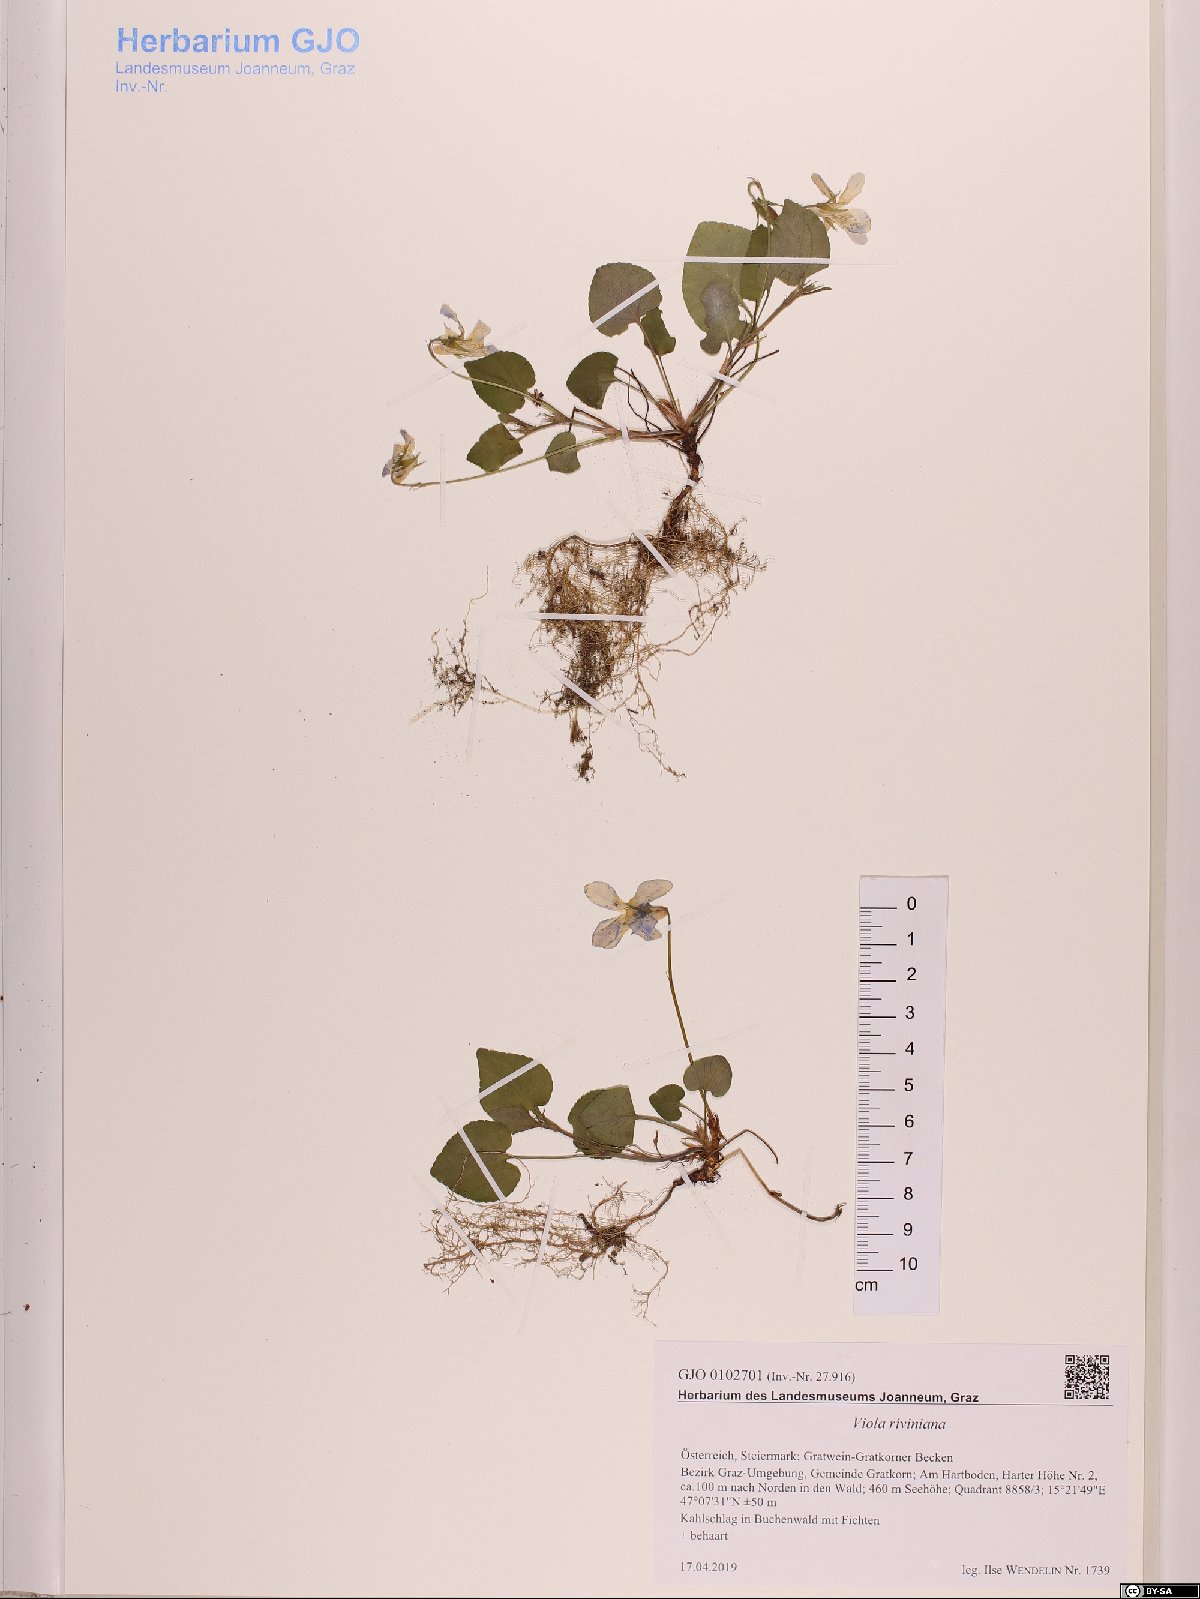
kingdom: Plantae
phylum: Tracheophyta
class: Magnoliopsida
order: Malpighiales
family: Violaceae
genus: Viola
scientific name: Viola riviniana
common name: Common dog-violet
